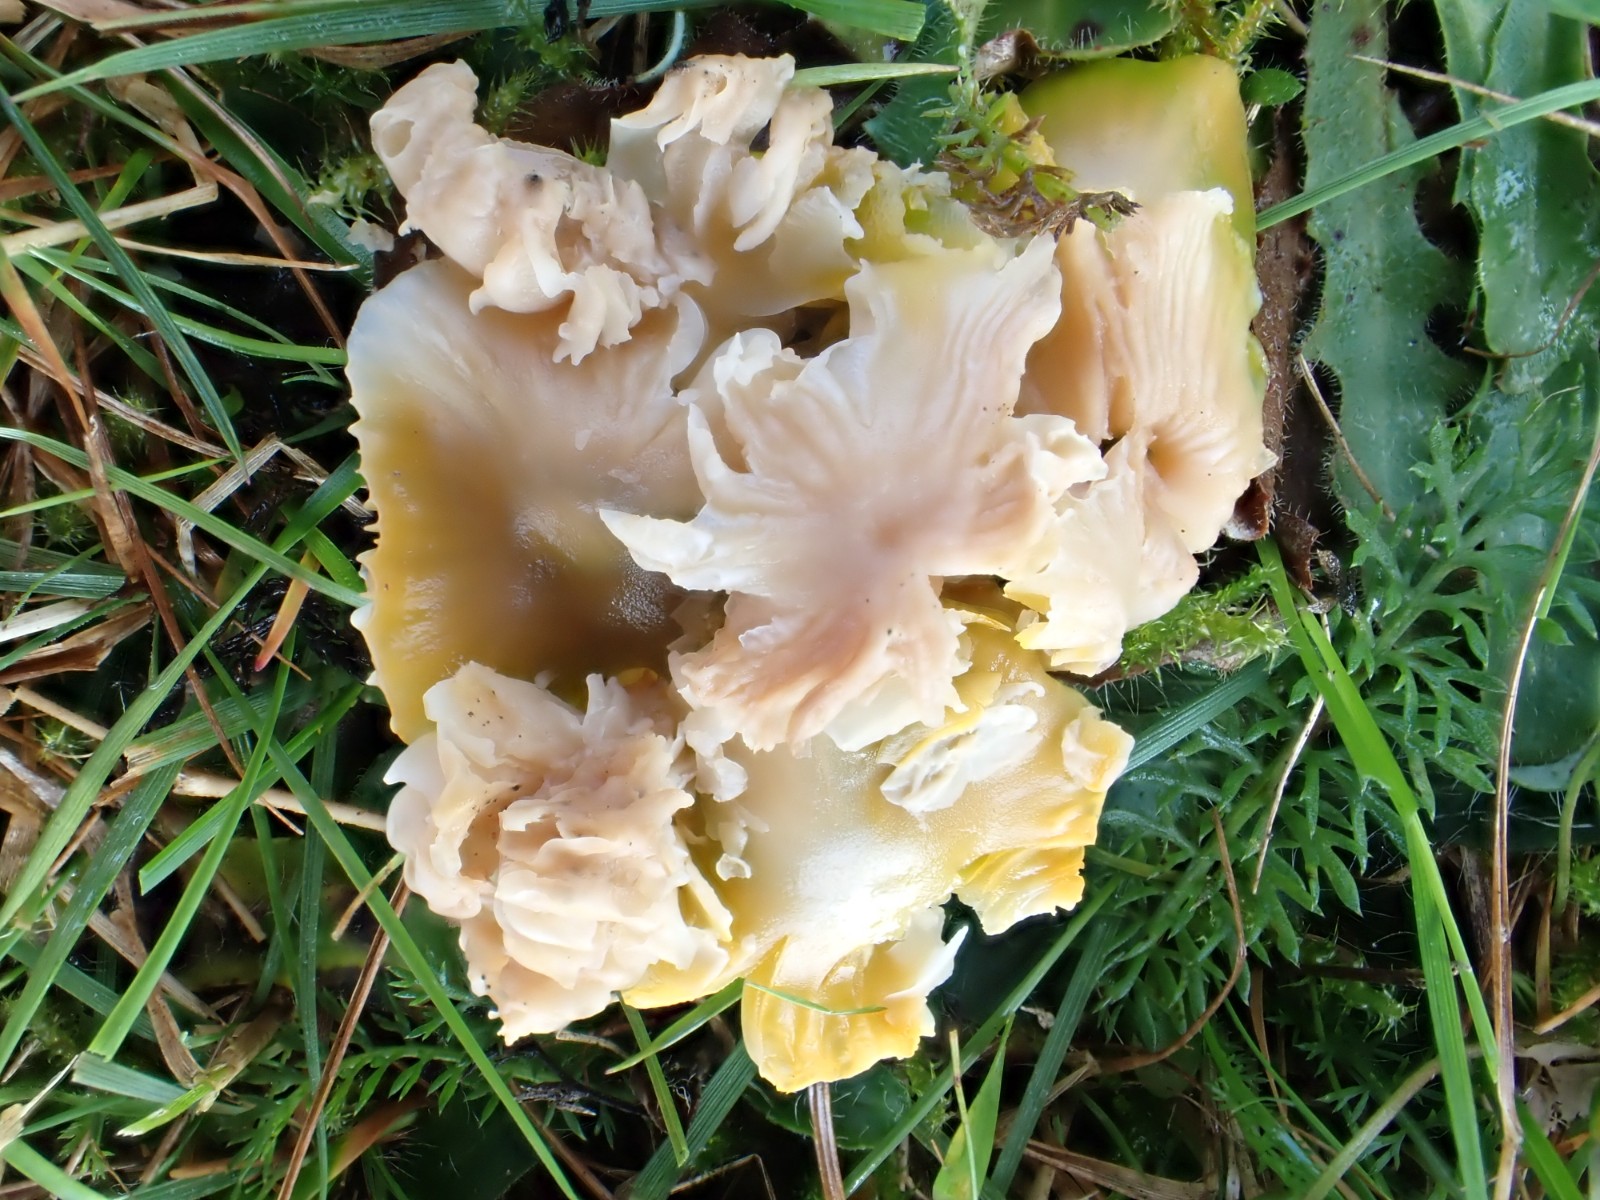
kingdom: Fungi
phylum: Basidiomycota
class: Agaricomycetes
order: Agaricales
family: Hygrophoraceae
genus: Gliophorus
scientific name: Gliophorus psittacinus
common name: papegøje-vokshat
